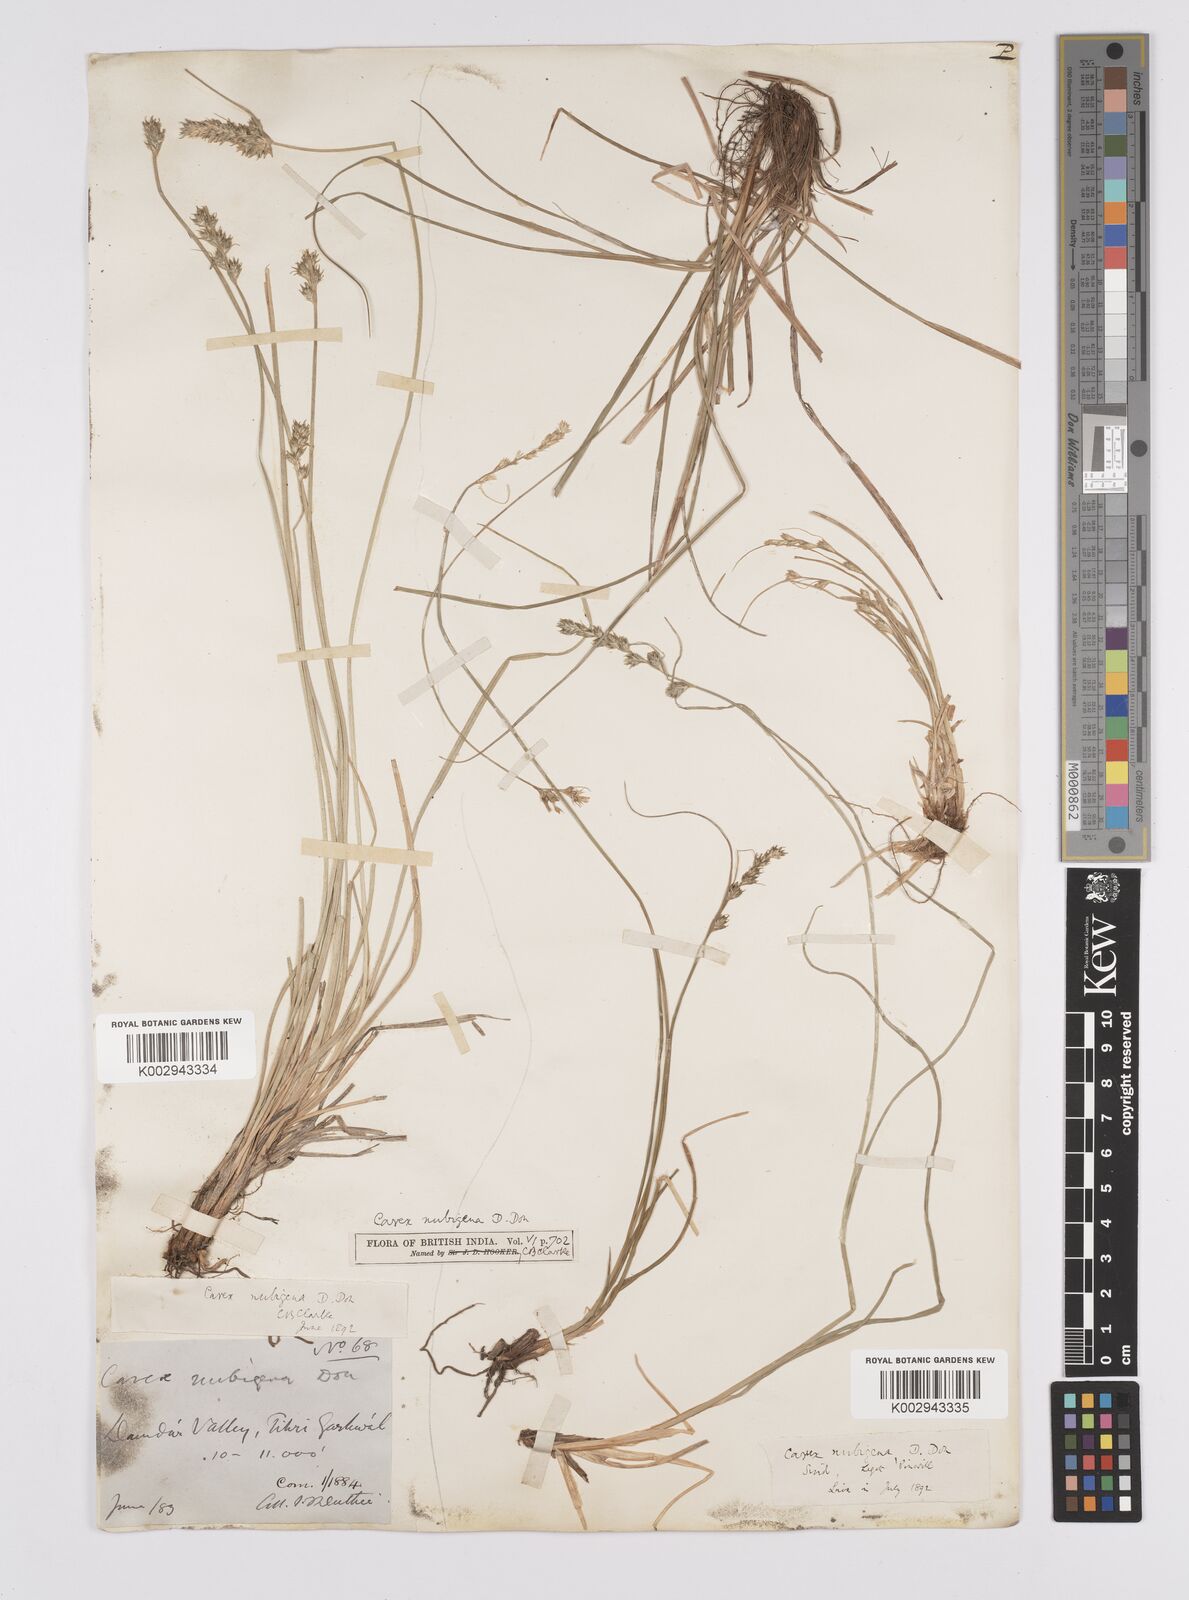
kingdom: Plantae
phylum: Tracheophyta
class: Liliopsida
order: Poales
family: Cyperaceae
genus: Carex
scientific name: Carex nubigena
